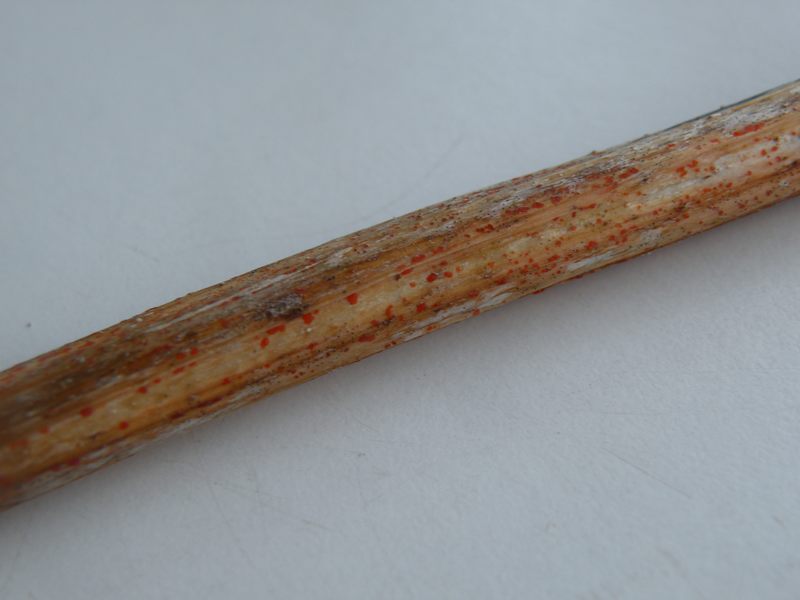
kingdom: Fungi
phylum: Ascomycota
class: Leotiomycetes
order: Helotiales
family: Calloriaceae
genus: Calloria
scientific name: Calloria urticae
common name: nælde-orangeskive
